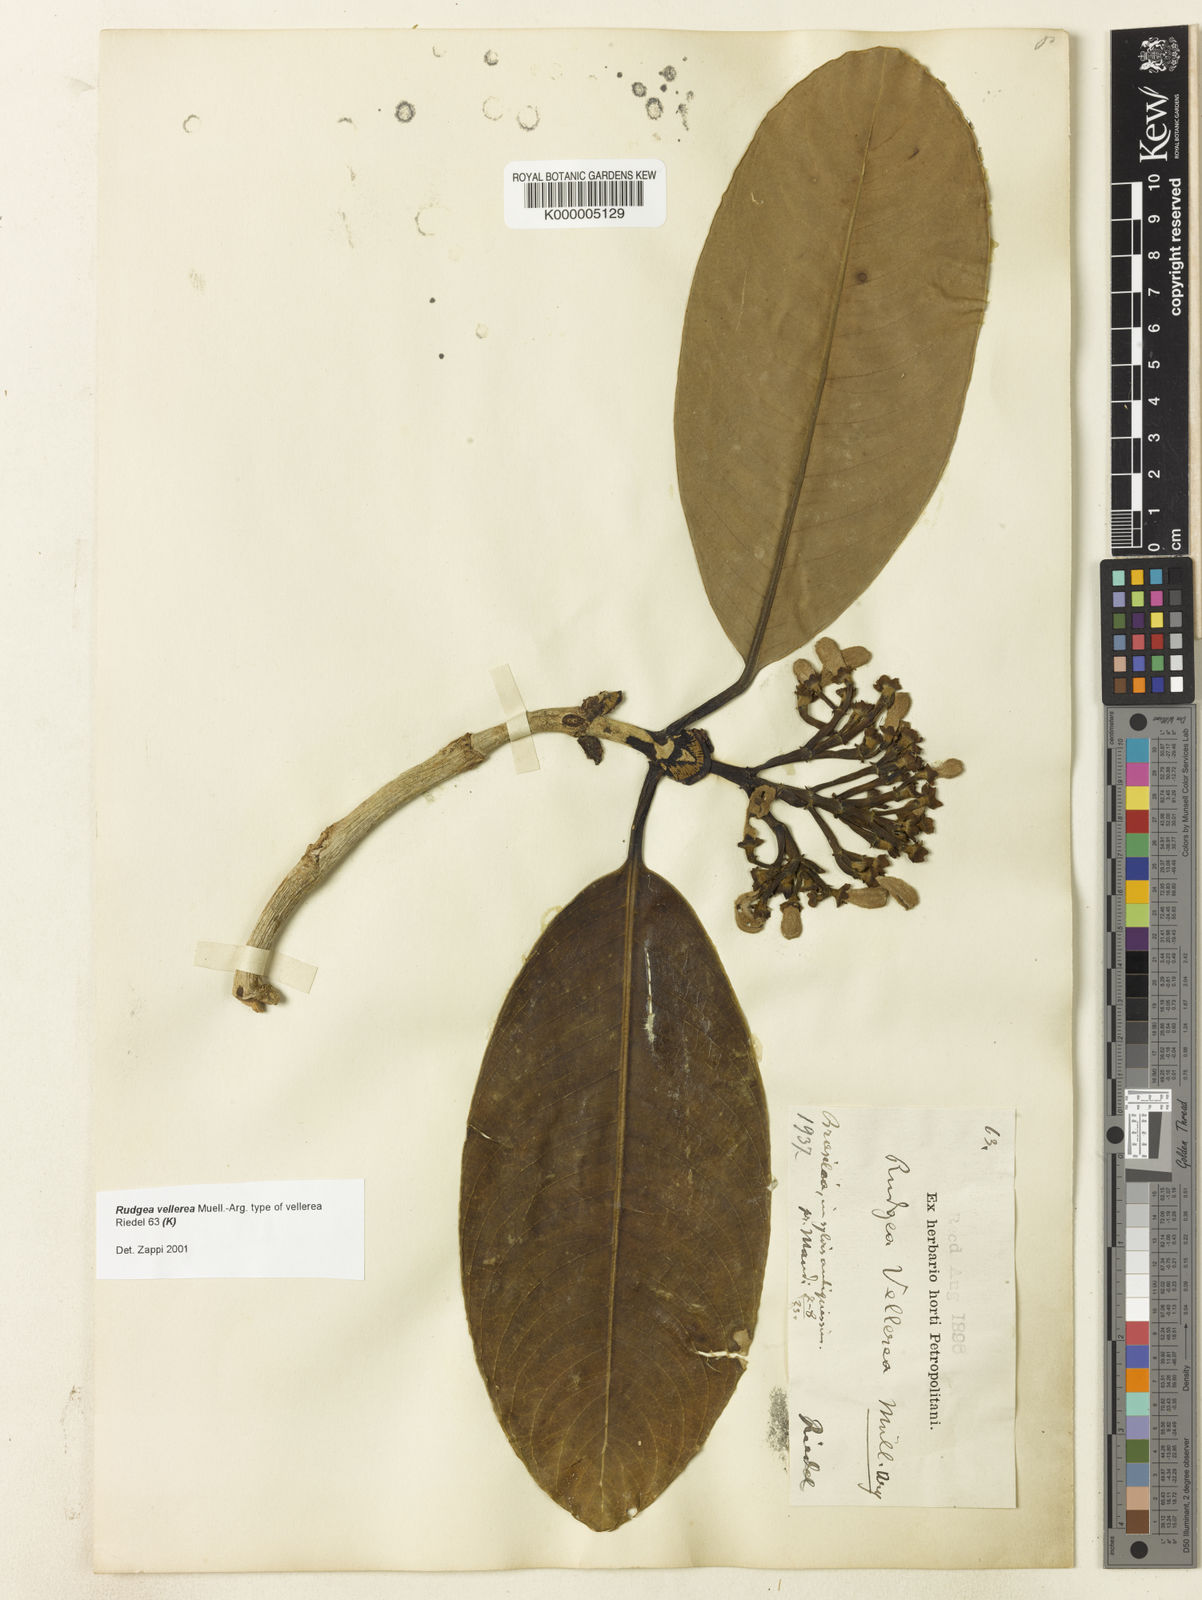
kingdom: Plantae
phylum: Tracheophyta
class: Magnoliopsida
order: Gentianales
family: Rubiaceae
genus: Rudgea
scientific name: Rudgea
